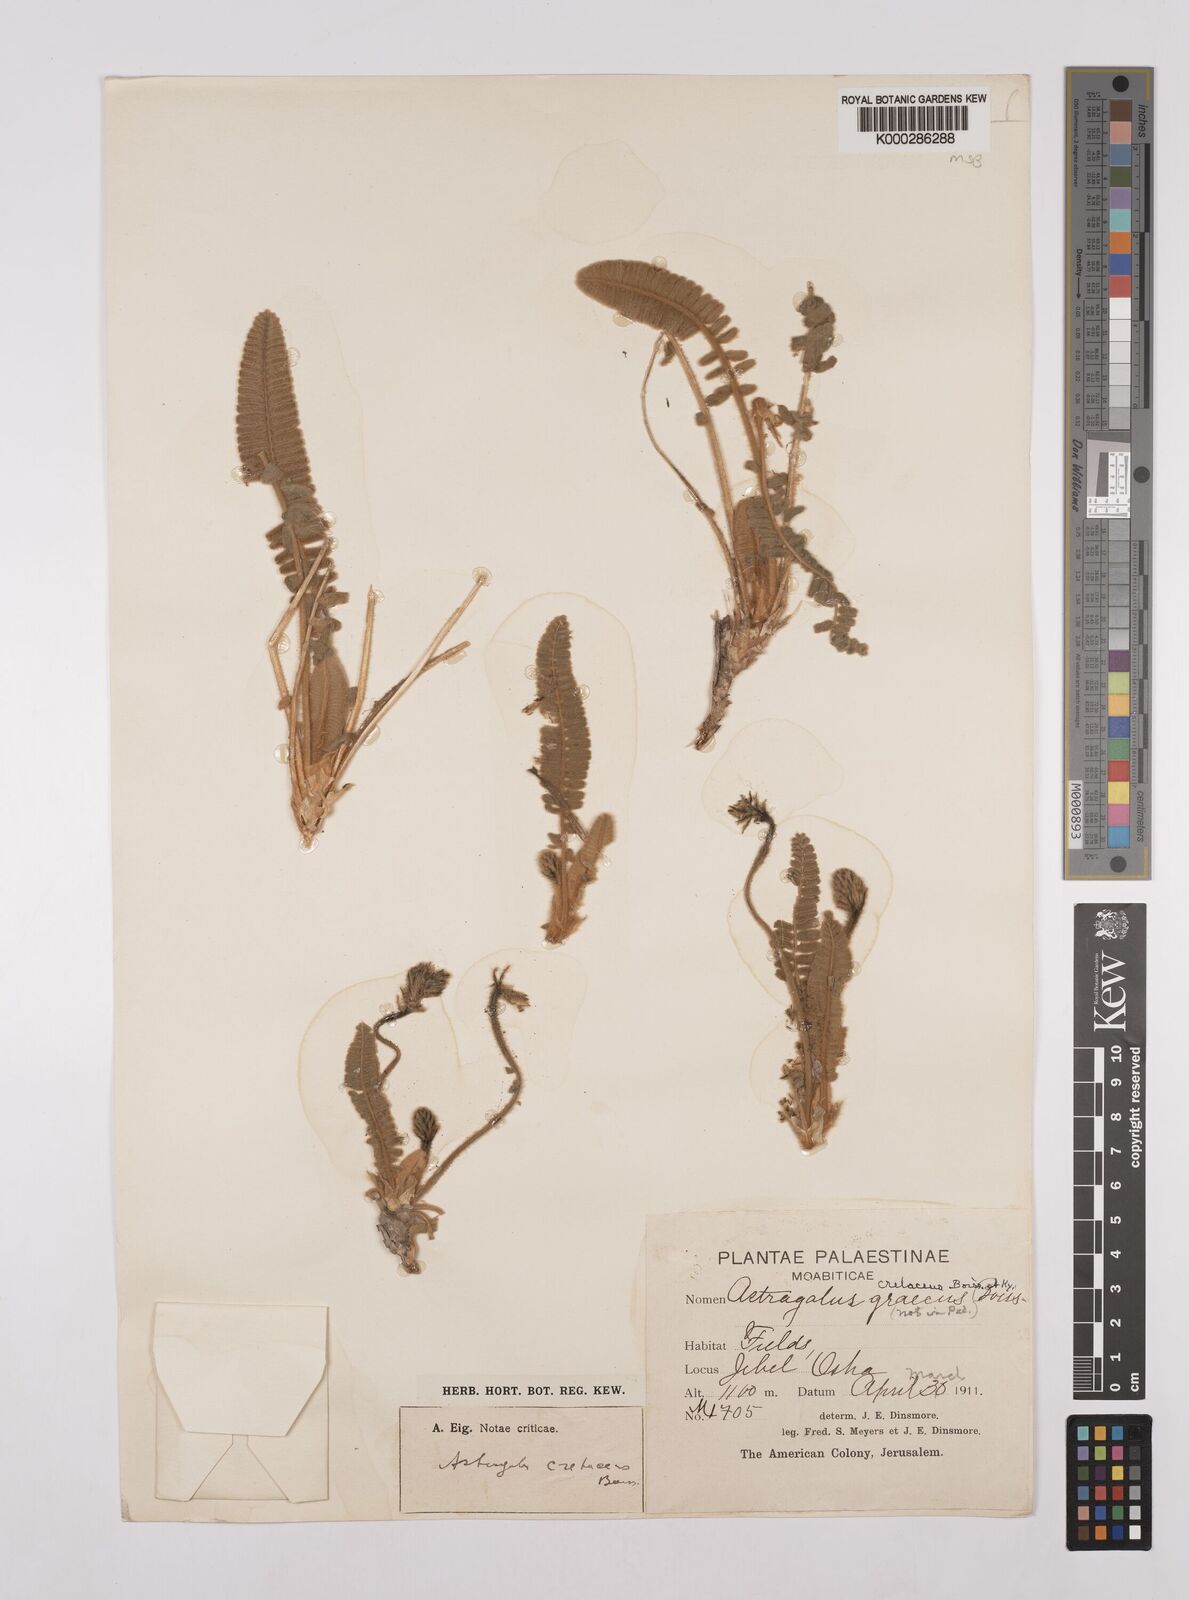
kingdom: Plantae
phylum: Tracheophyta
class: Magnoliopsida
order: Fabales
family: Fabaceae
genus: Astragalus
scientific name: Astragalus cretaceus
